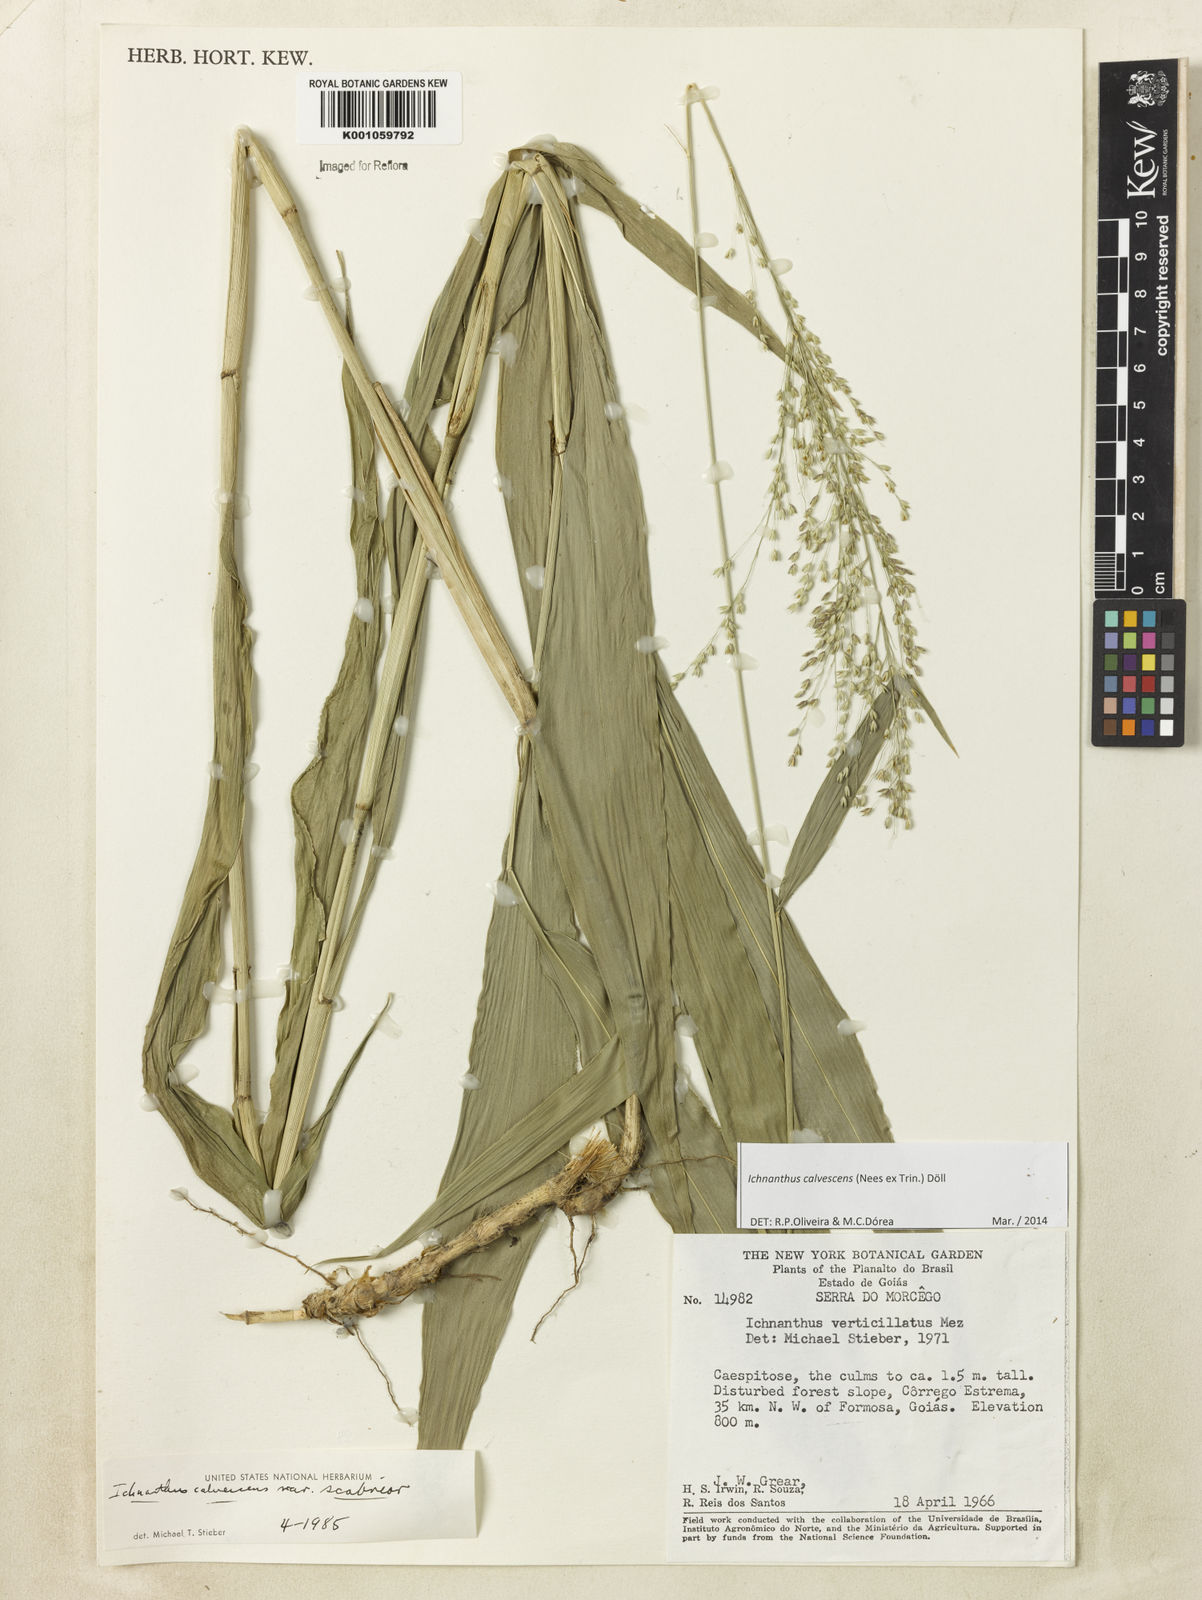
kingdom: Plantae
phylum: Tracheophyta
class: Liliopsida
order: Poales
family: Poaceae
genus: Ichnanthus
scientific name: Ichnanthus
